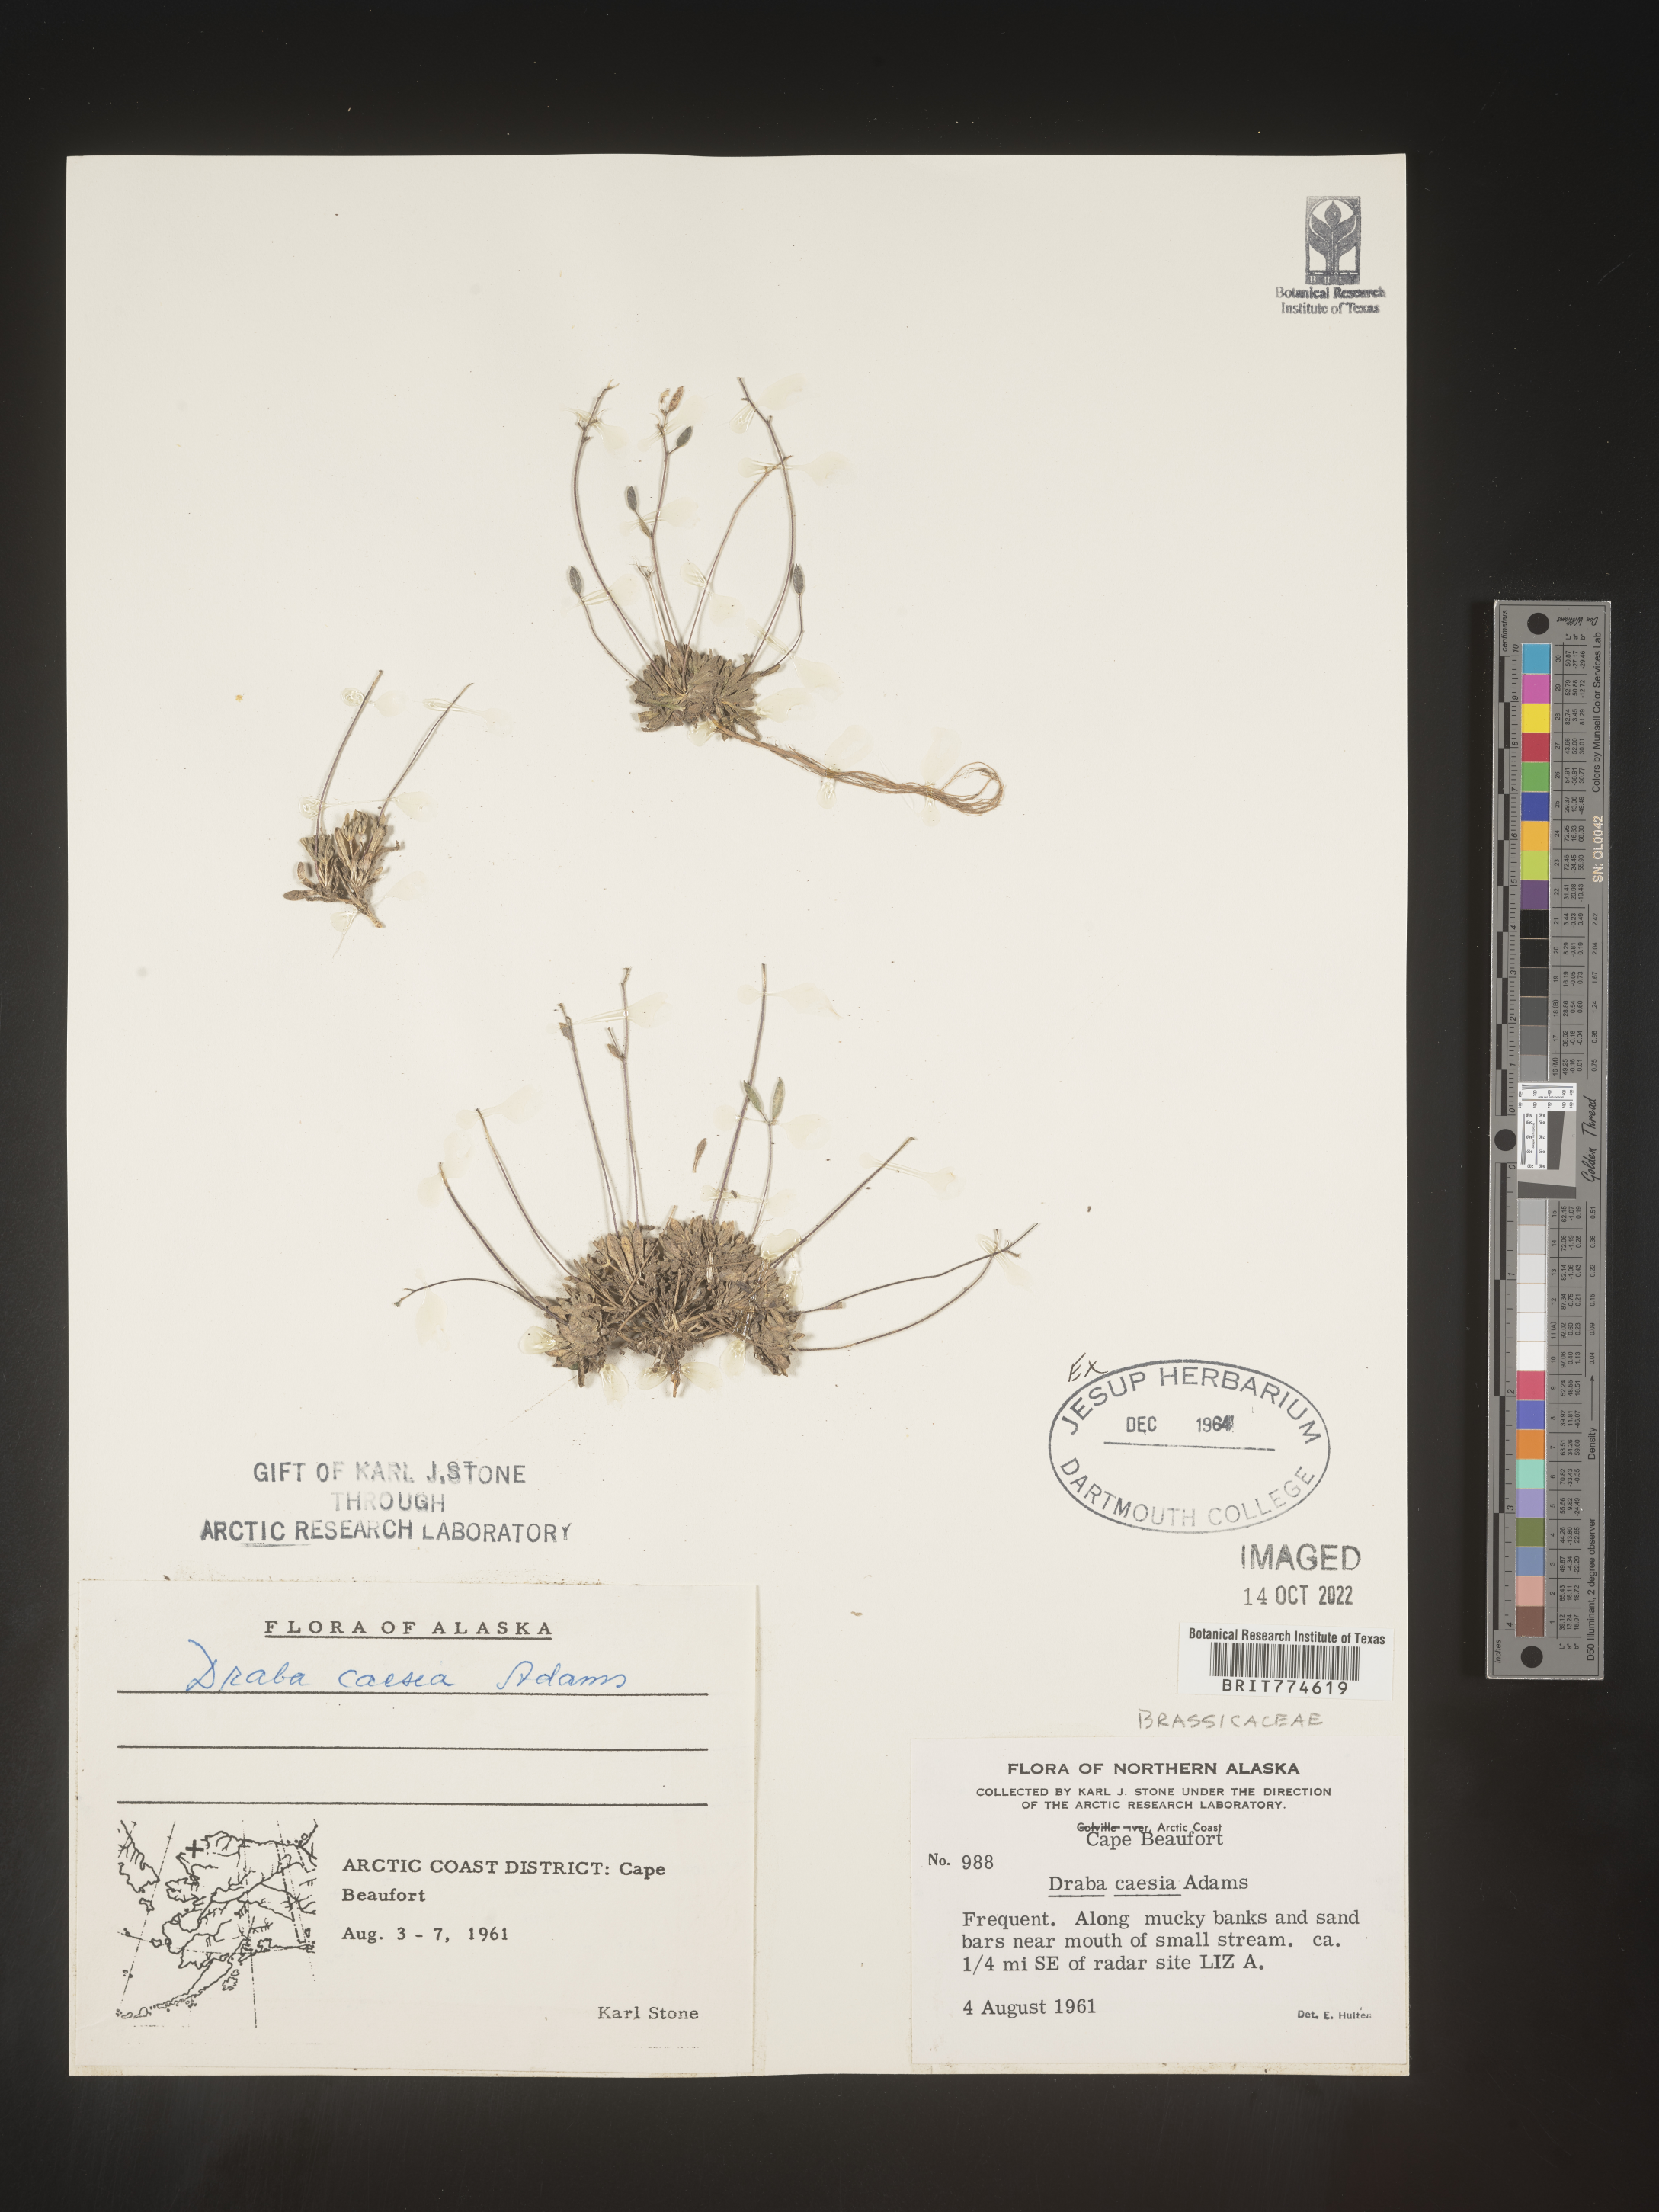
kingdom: Plantae
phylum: Tracheophyta
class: Magnoliopsida
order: Brassicales
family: Brassicaceae
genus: Draba
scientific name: Draba
